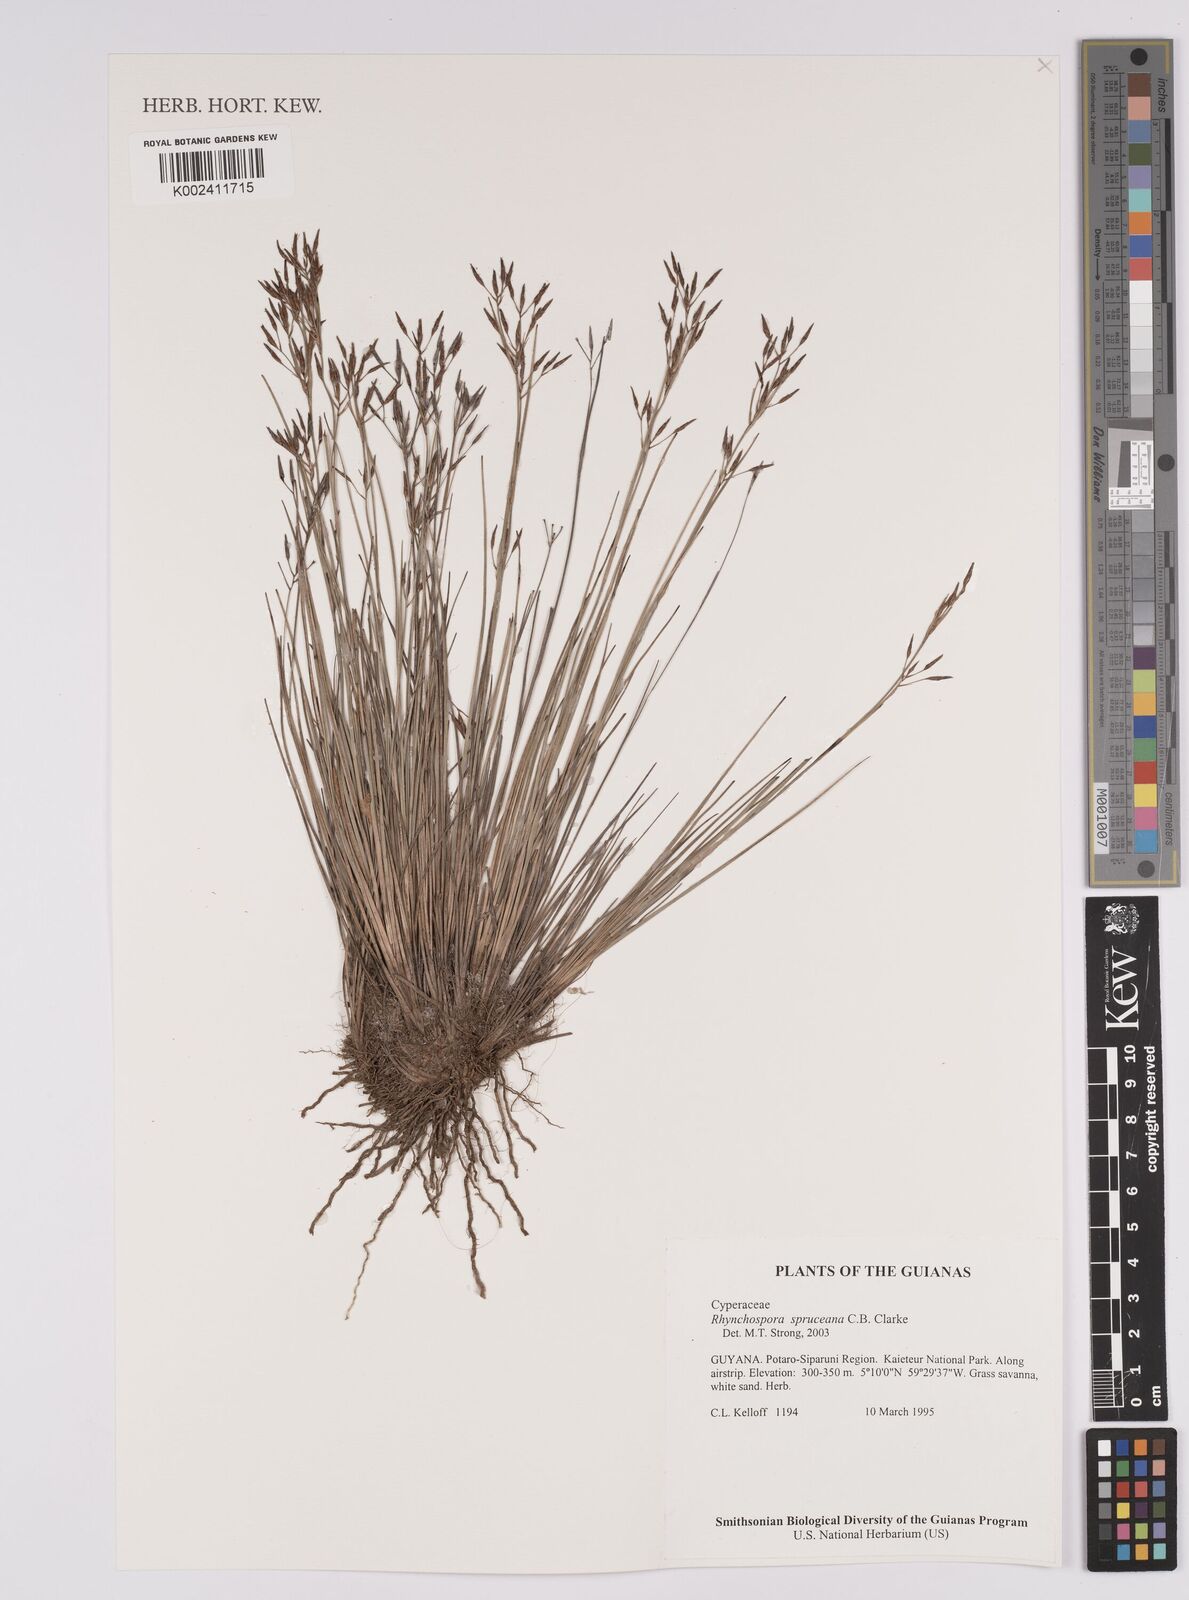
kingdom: Plantae
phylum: Tracheophyta
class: Liliopsida
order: Poales
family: Cyperaceae
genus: Rhynchospora
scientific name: Rhynchospora spruceana
